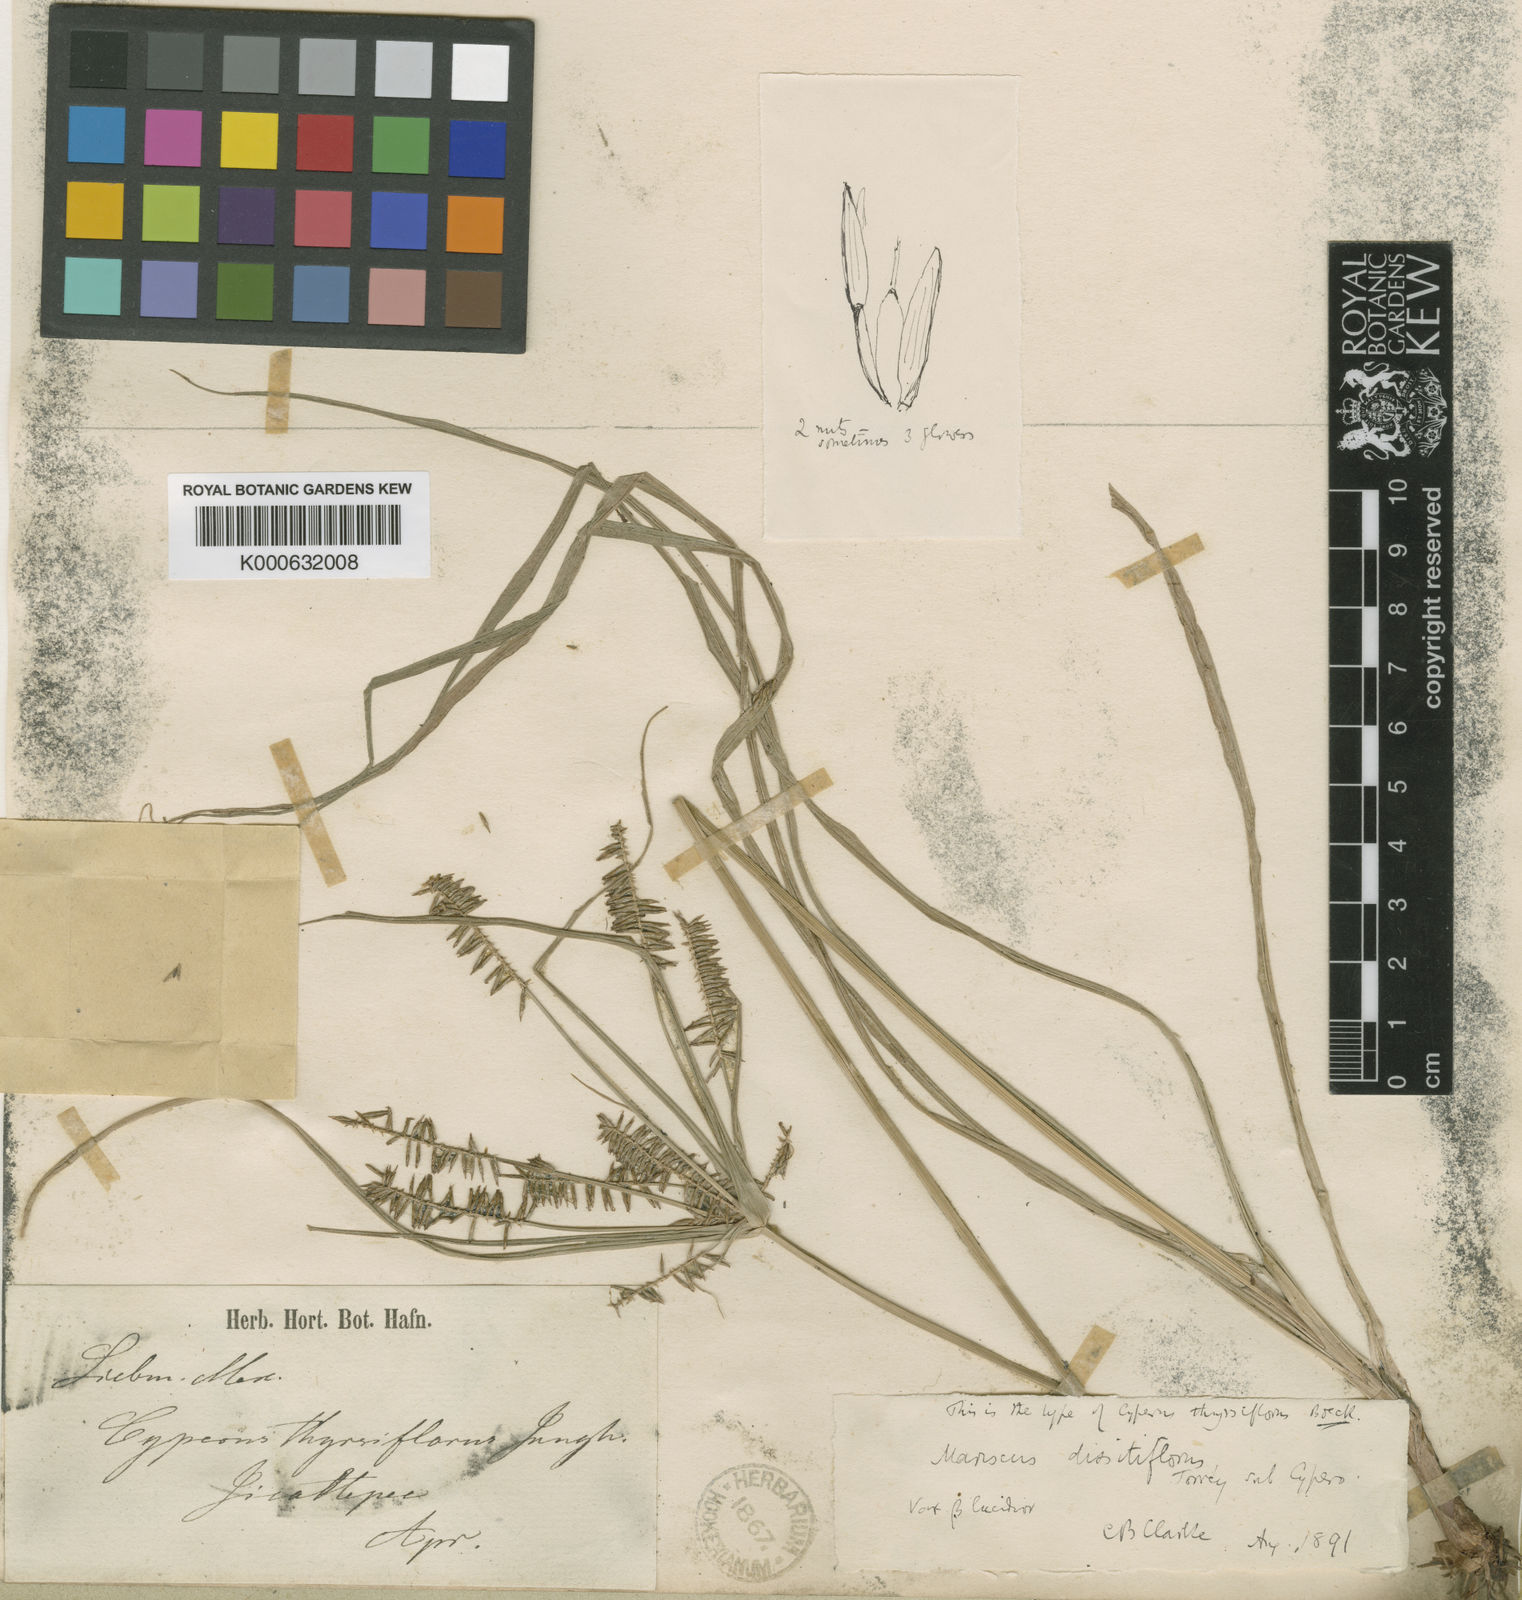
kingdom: Plantae
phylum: Tracheophyta
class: Liliopsida
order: Poales
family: Cyperaceae
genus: Cyperus
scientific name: Cyperus
